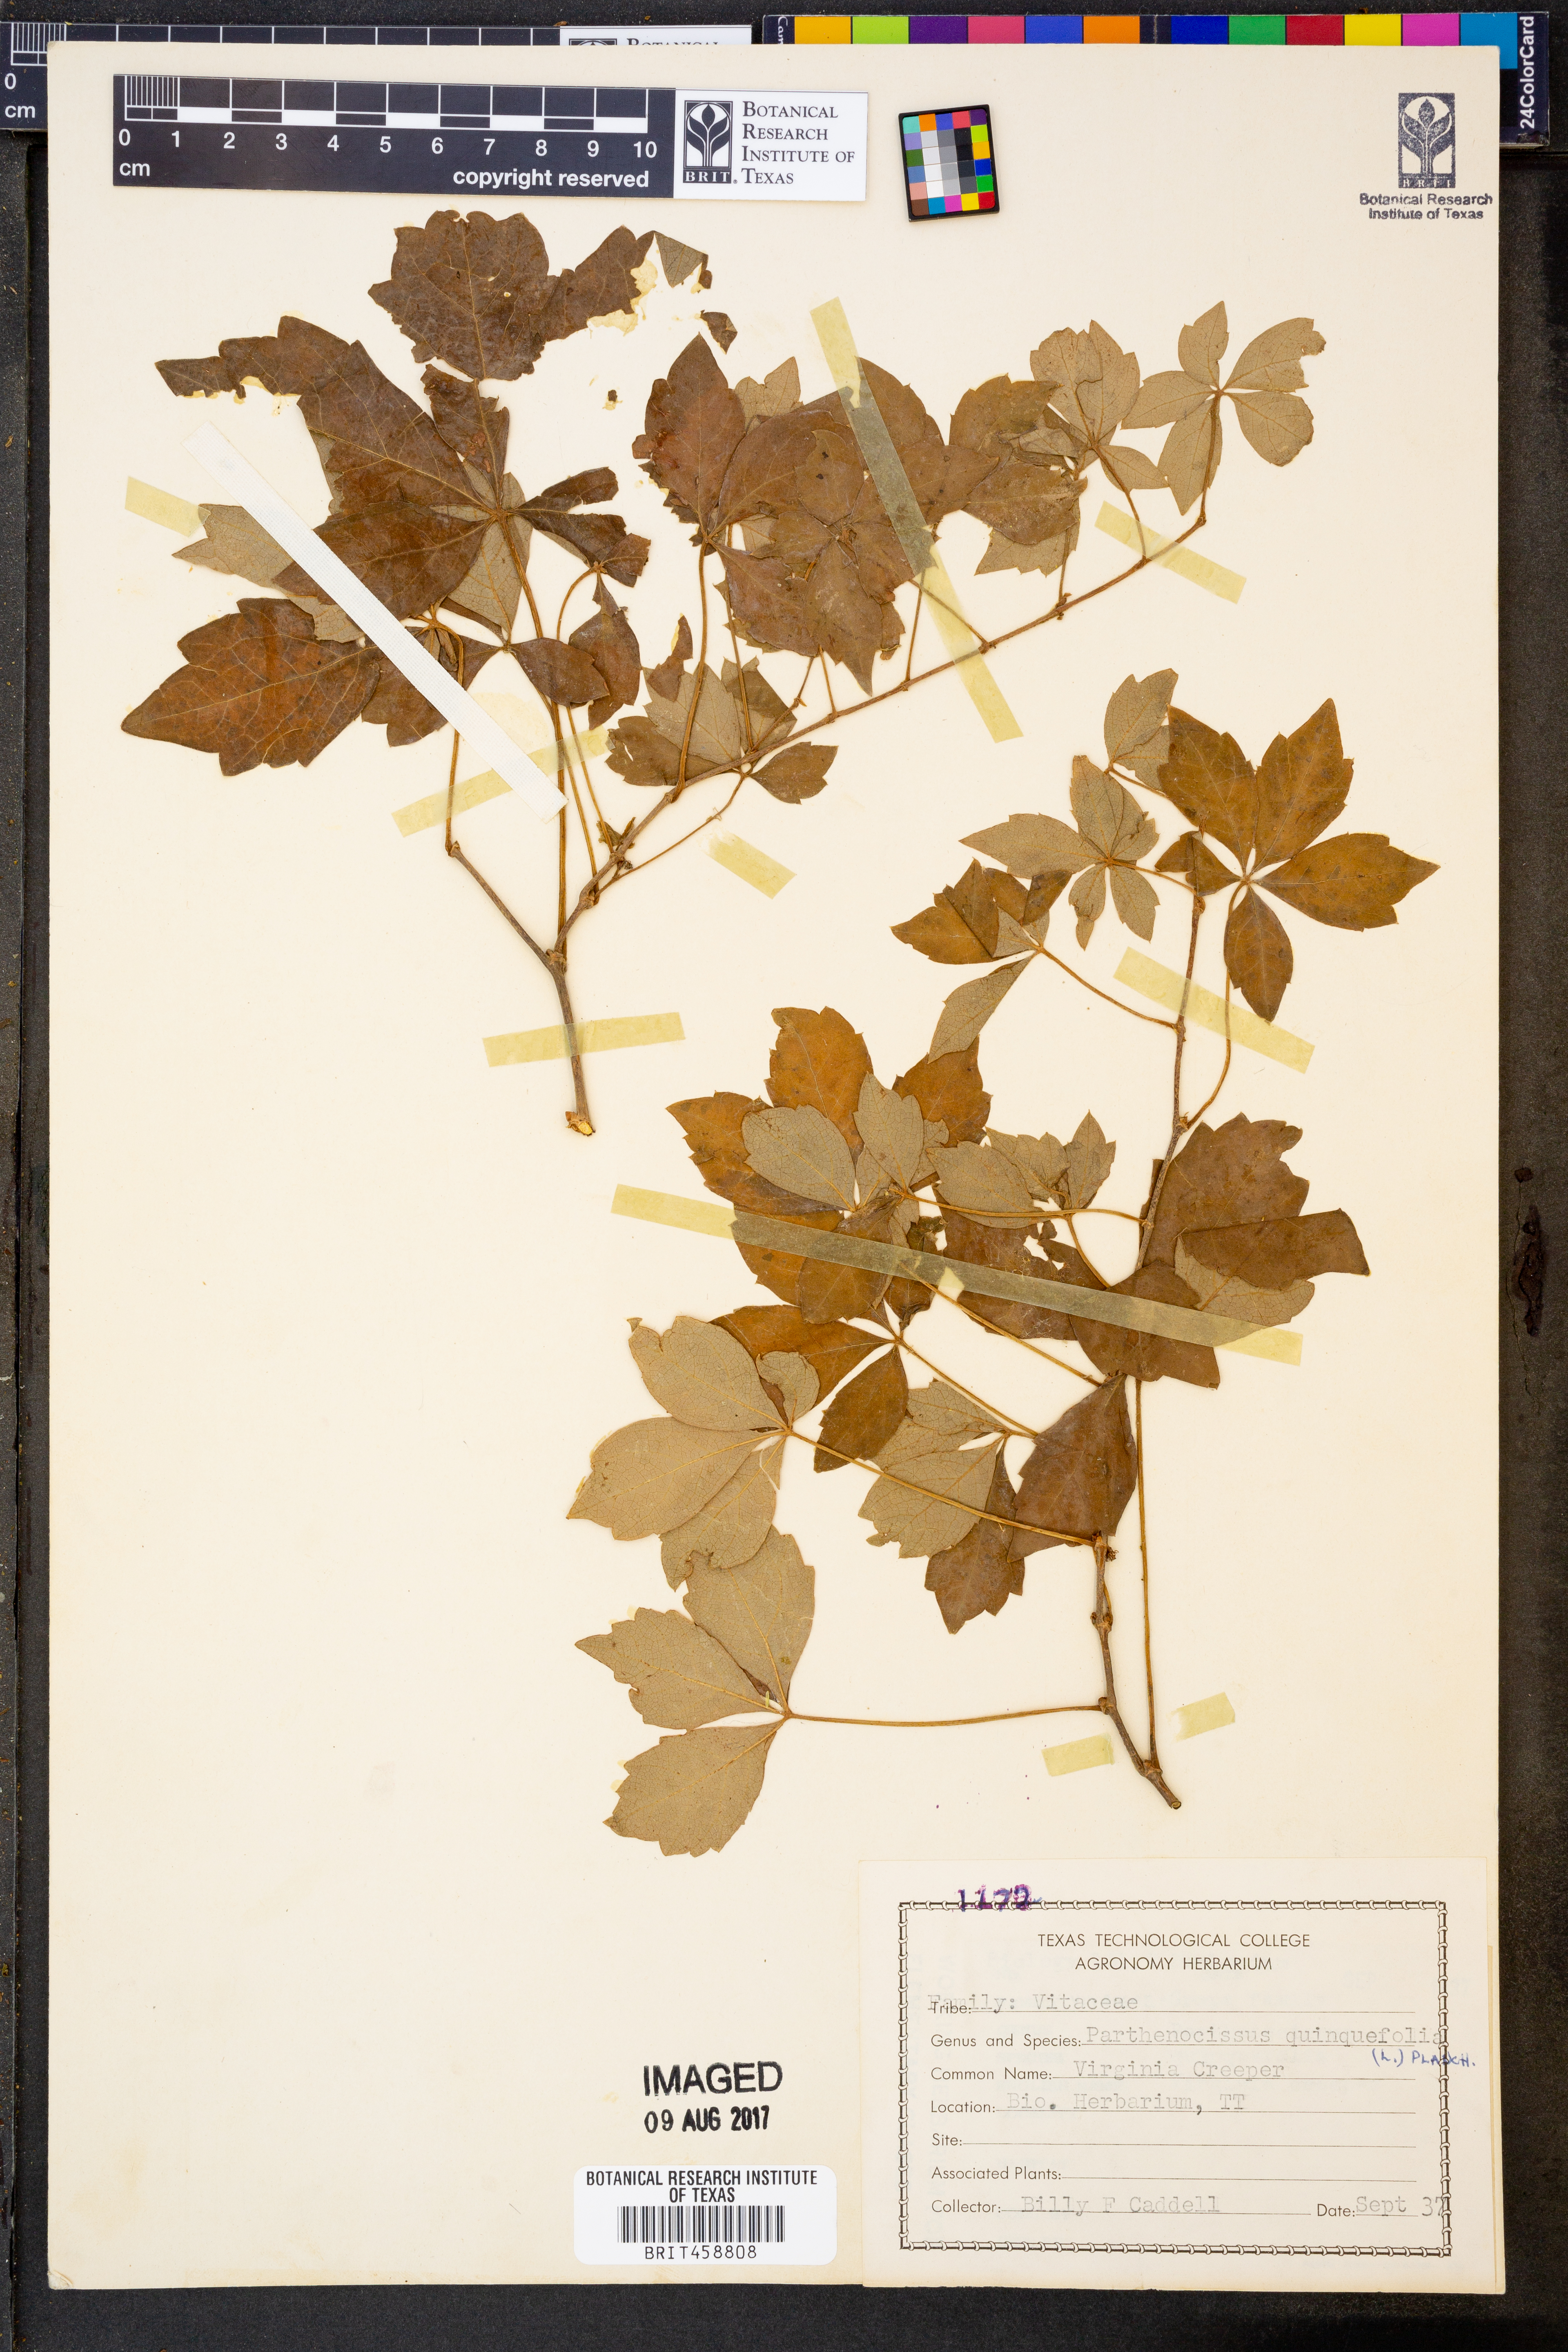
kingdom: Plantae
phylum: Tracheophyta
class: Magnoliopsida
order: Vitales
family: Vitaceae
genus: Parthenocissus
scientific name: Parthenocissus quinquefolia
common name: Virginia-creeper
